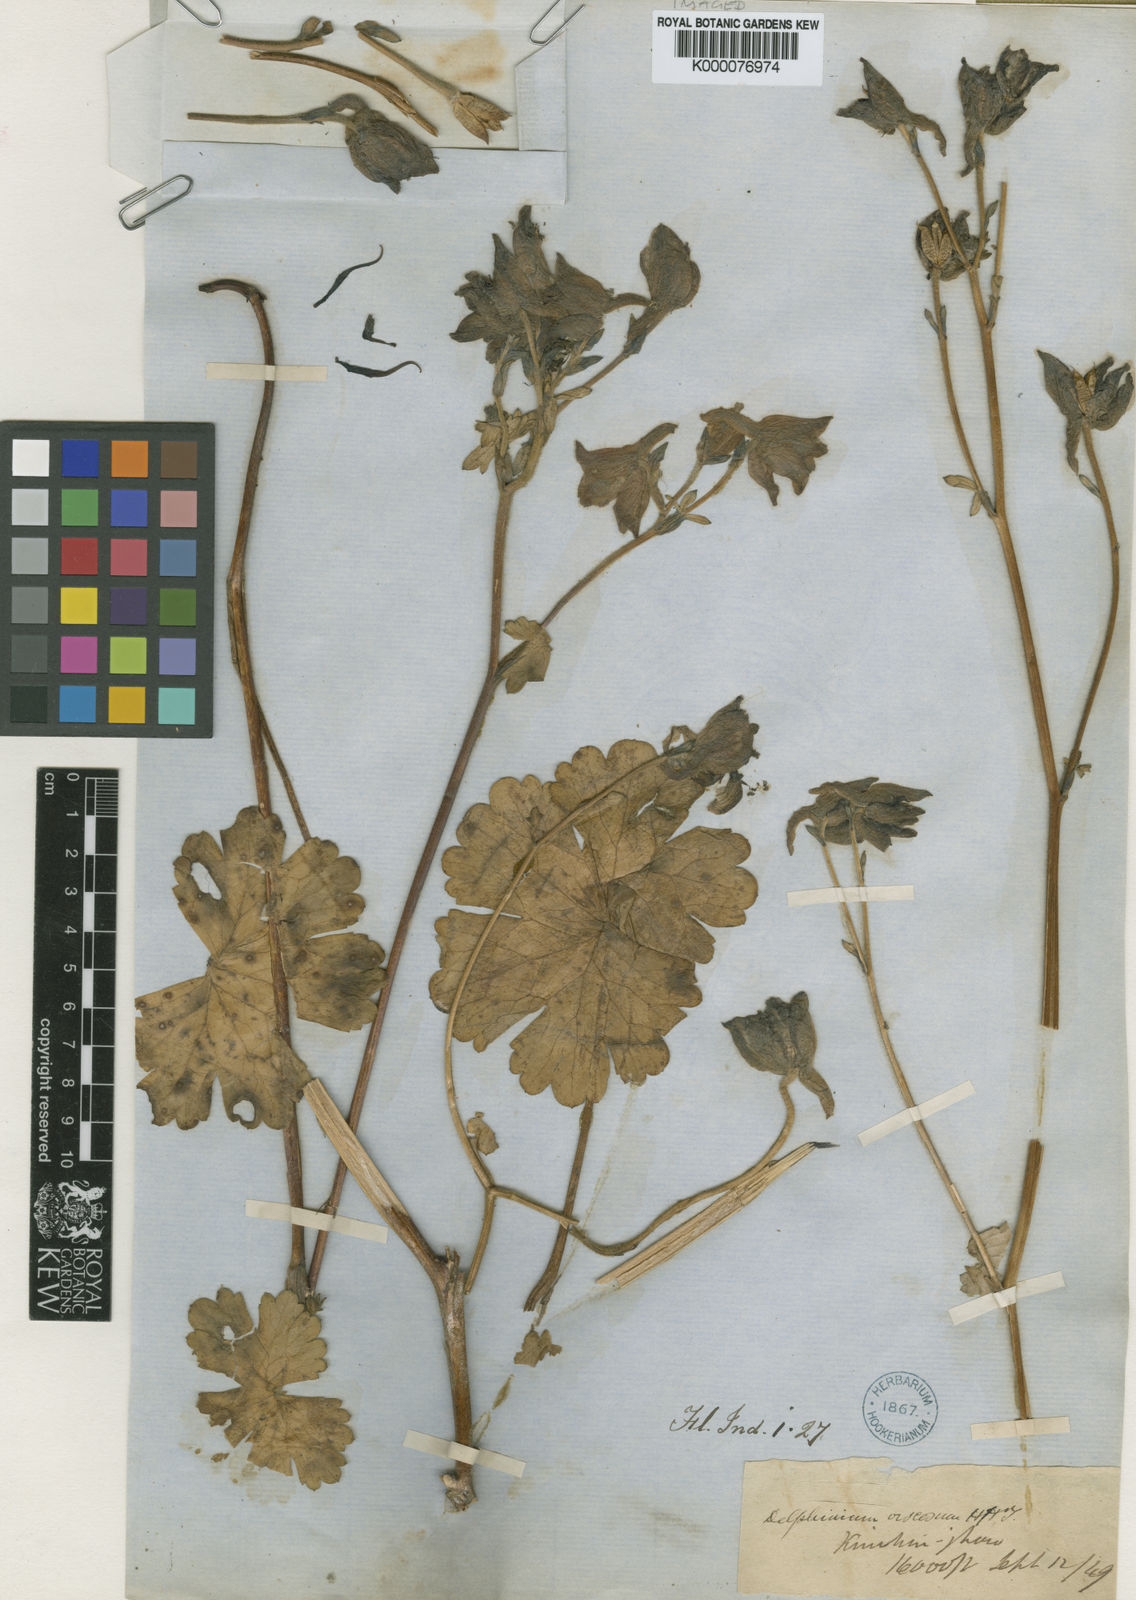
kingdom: Plantae
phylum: Tracheophyta
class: Magnoliopsida
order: Ranunculales
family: Ranunculaceae
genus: Delphinium
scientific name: Delphinium viscosum
